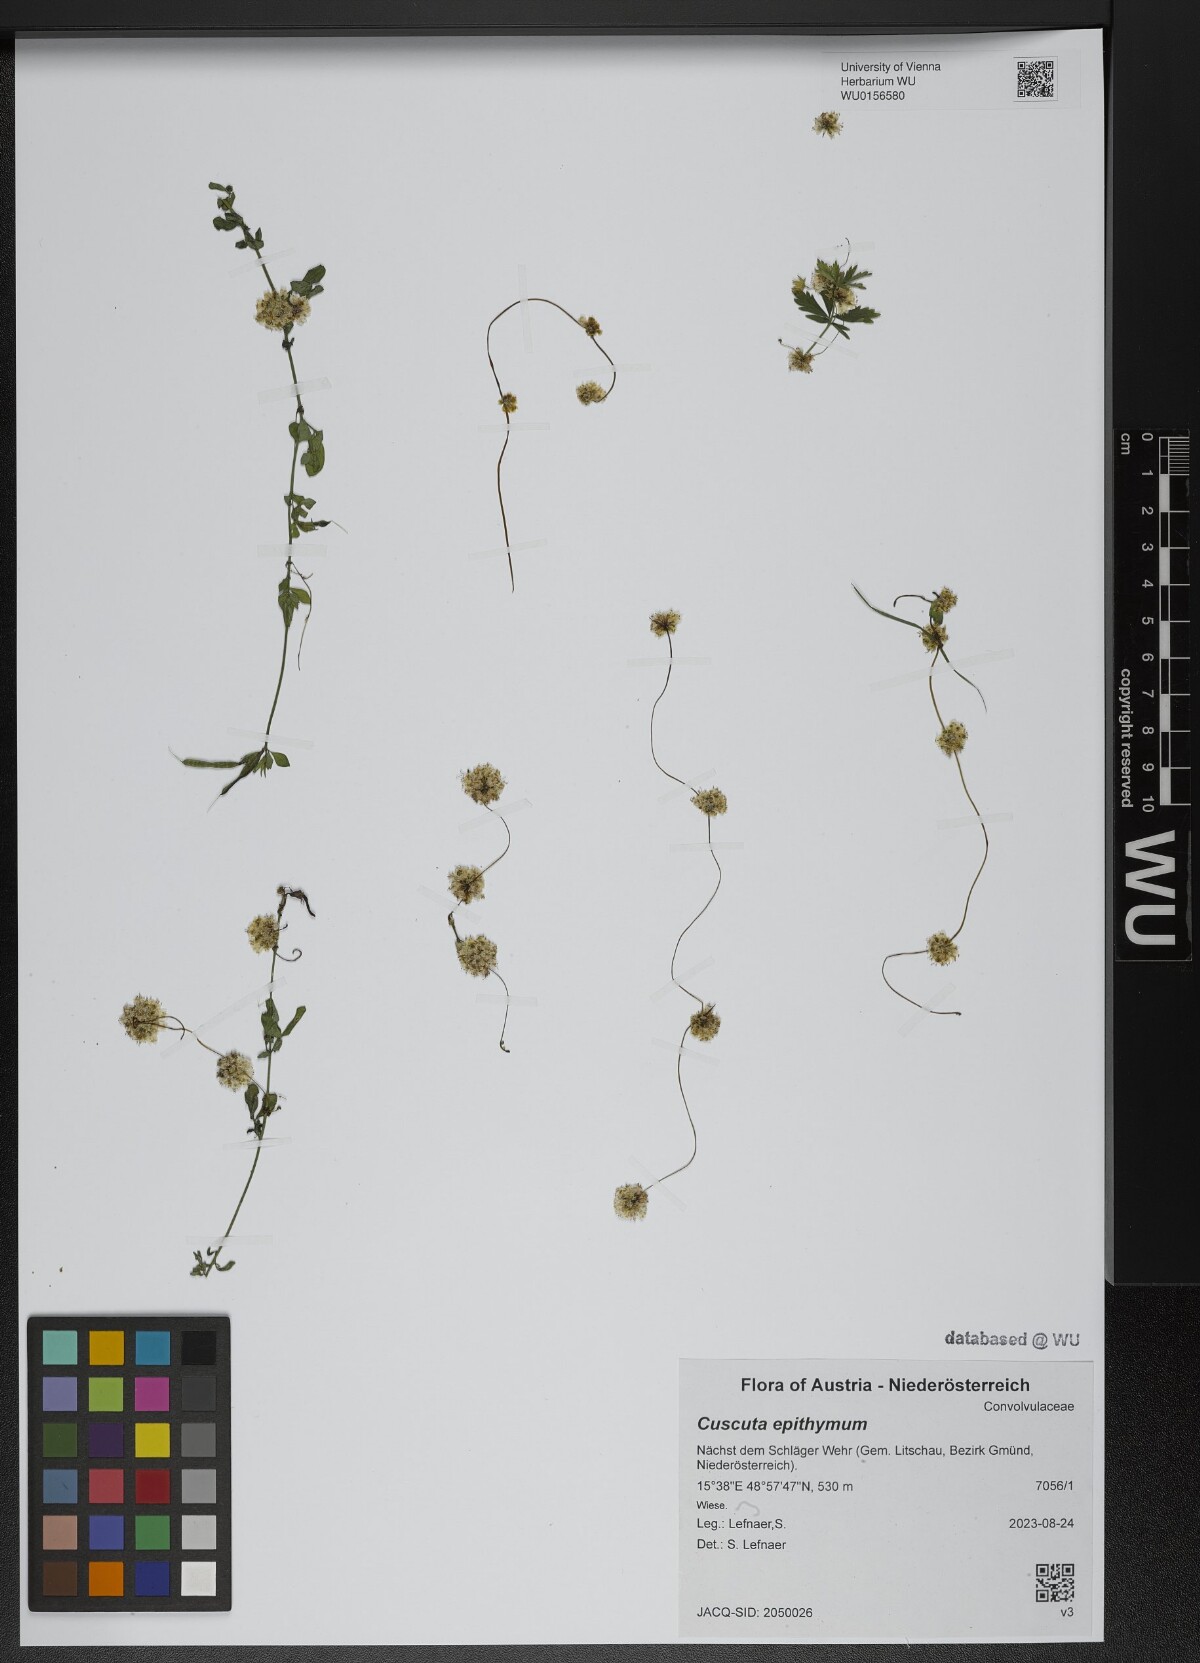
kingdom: Plantae
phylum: Tracheophyta
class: Magnoliopsida
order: Solanales
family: Convolvulaceae
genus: Cuscuta
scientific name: Cuscuta epithymum
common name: Clover dodder
